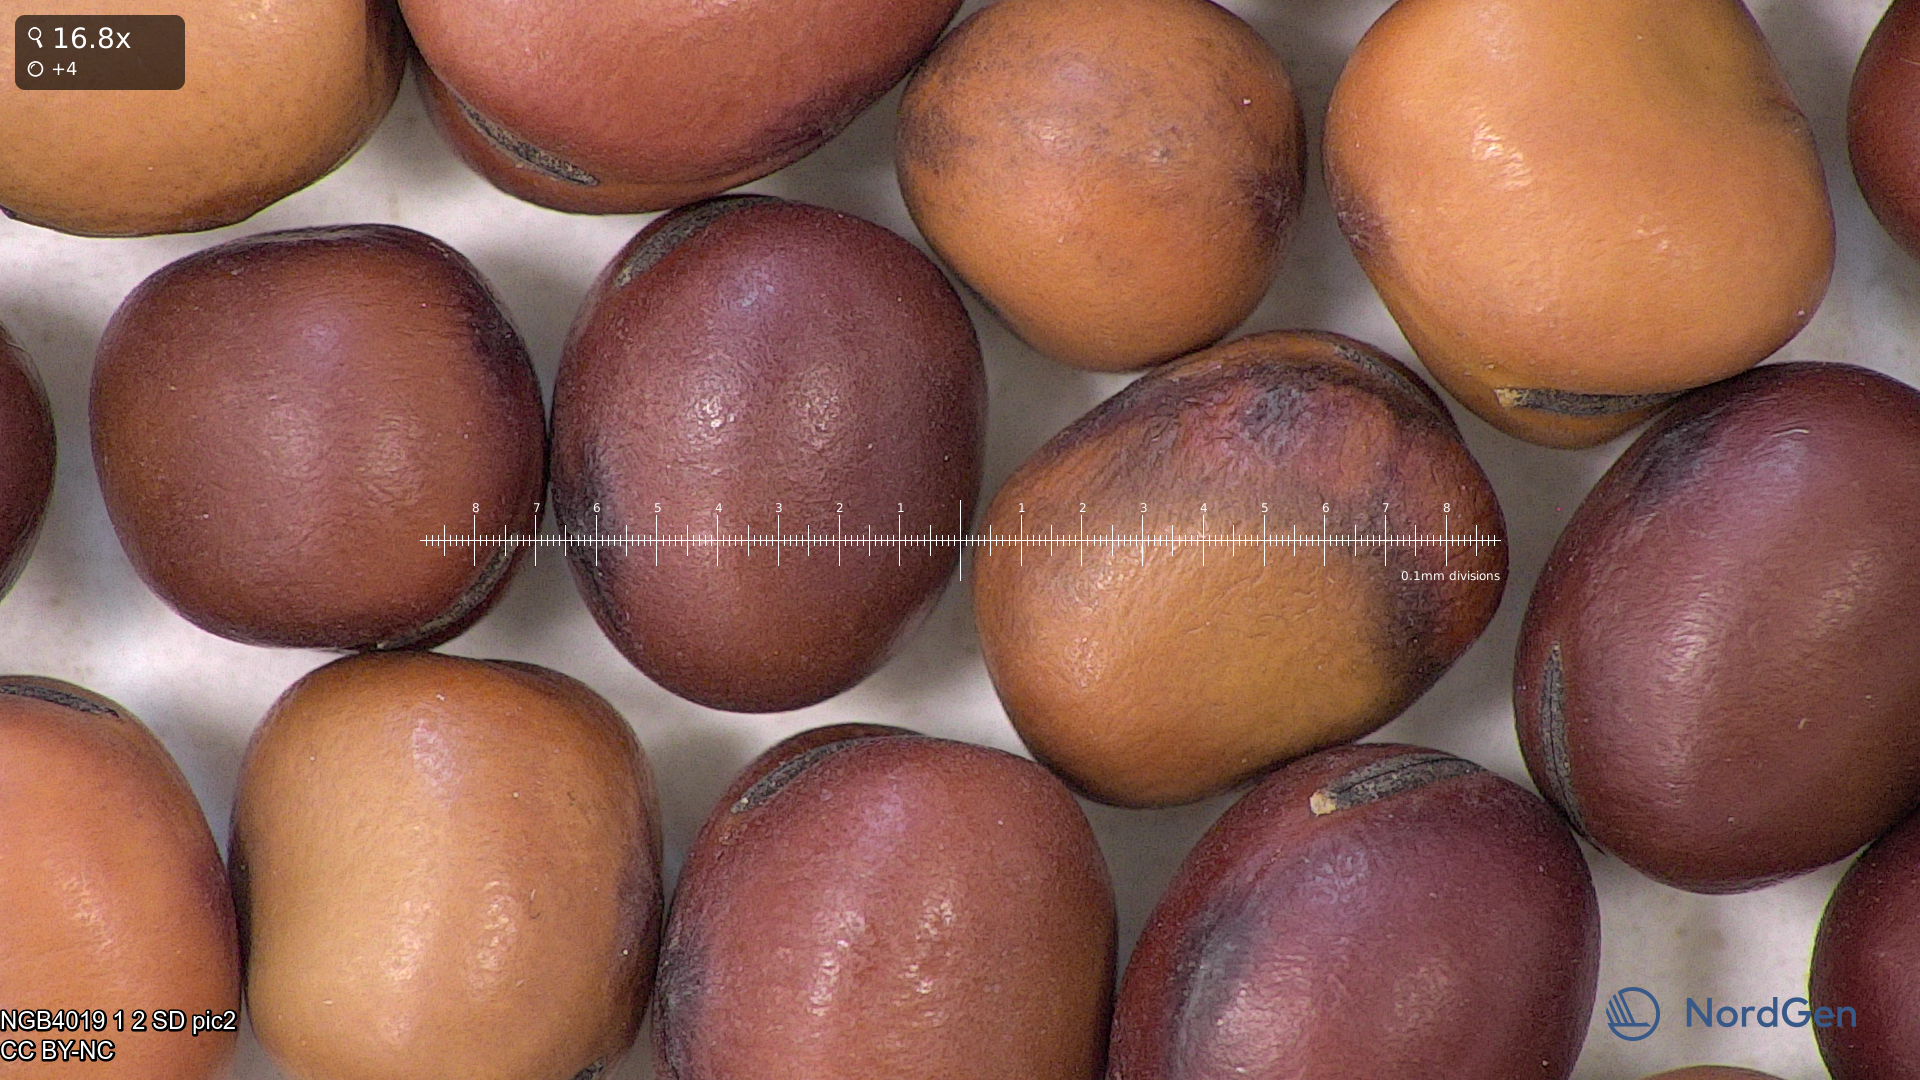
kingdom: Plantae
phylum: Tracheophyta
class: Magnoliopsida
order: Fabales
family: Fabaceae
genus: Vicia
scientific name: Vicia faba
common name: Broad bean
